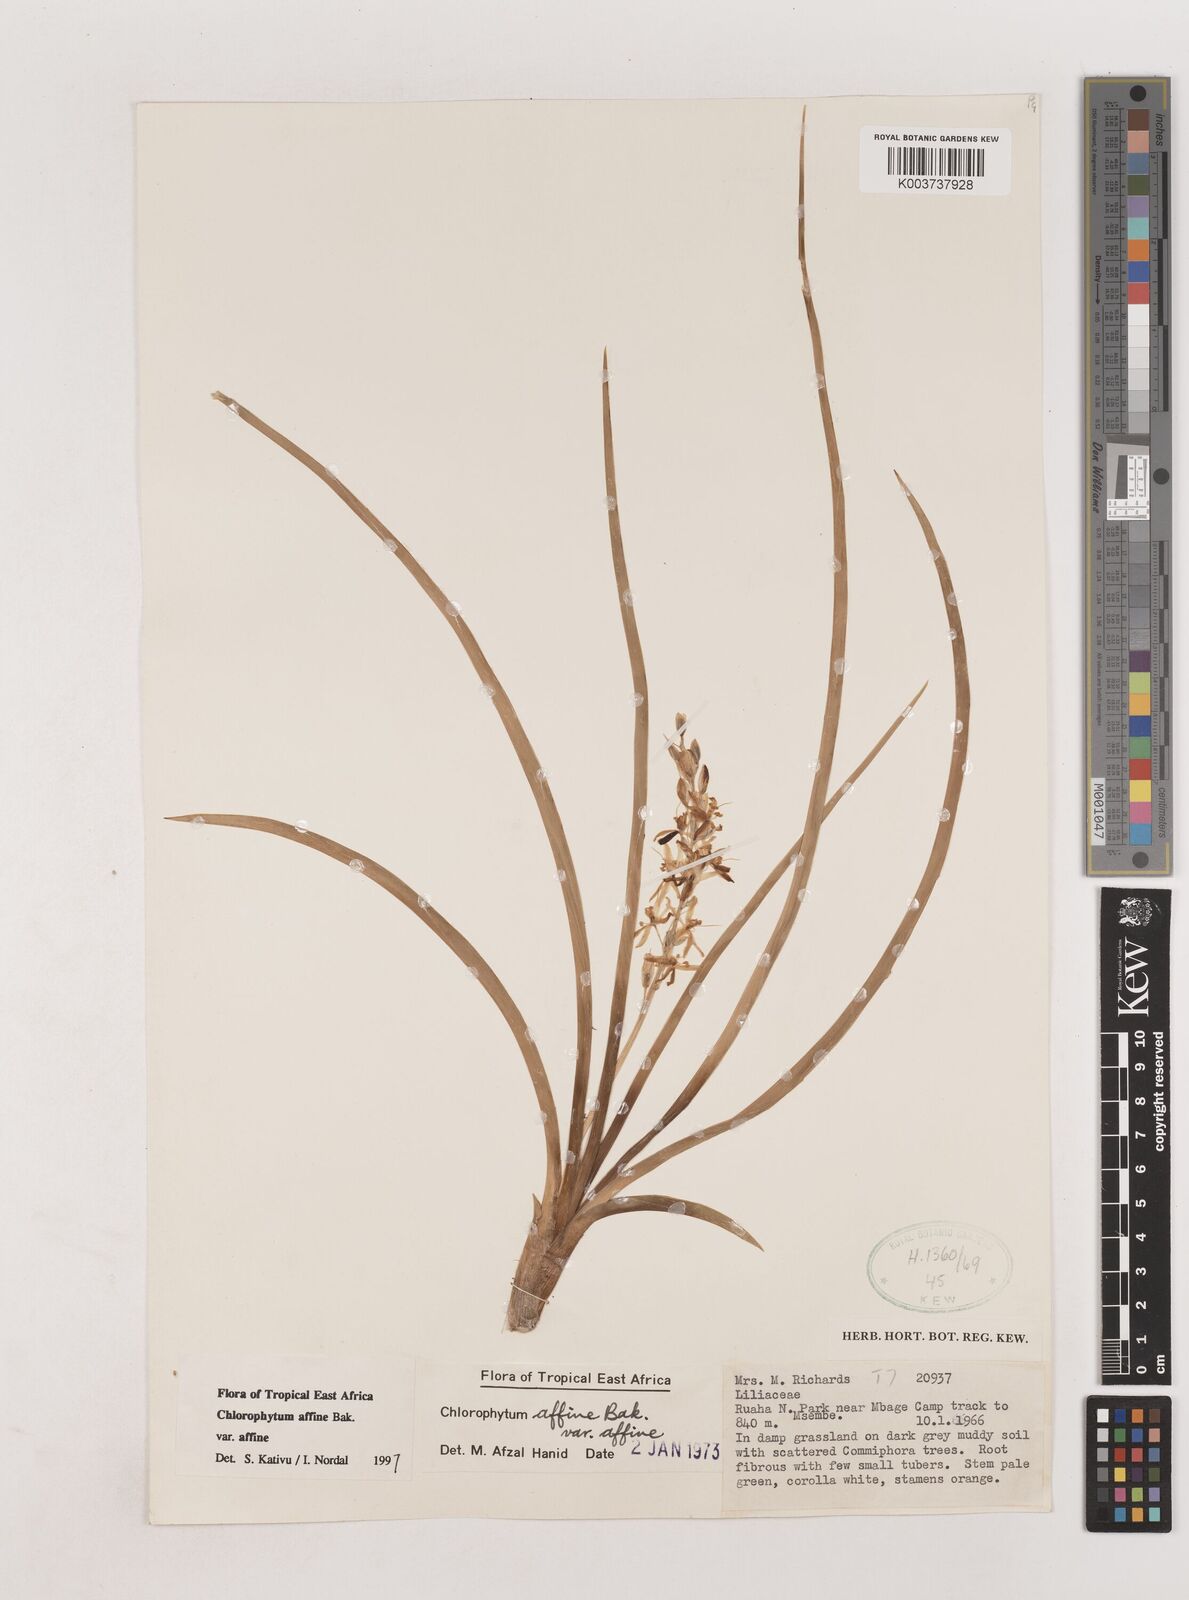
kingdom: Plantae
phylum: Tracheophyta
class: Liliopsida
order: Asparagales
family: Asparagaceae
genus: Chlorophytum
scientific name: Chlorophytum affine
